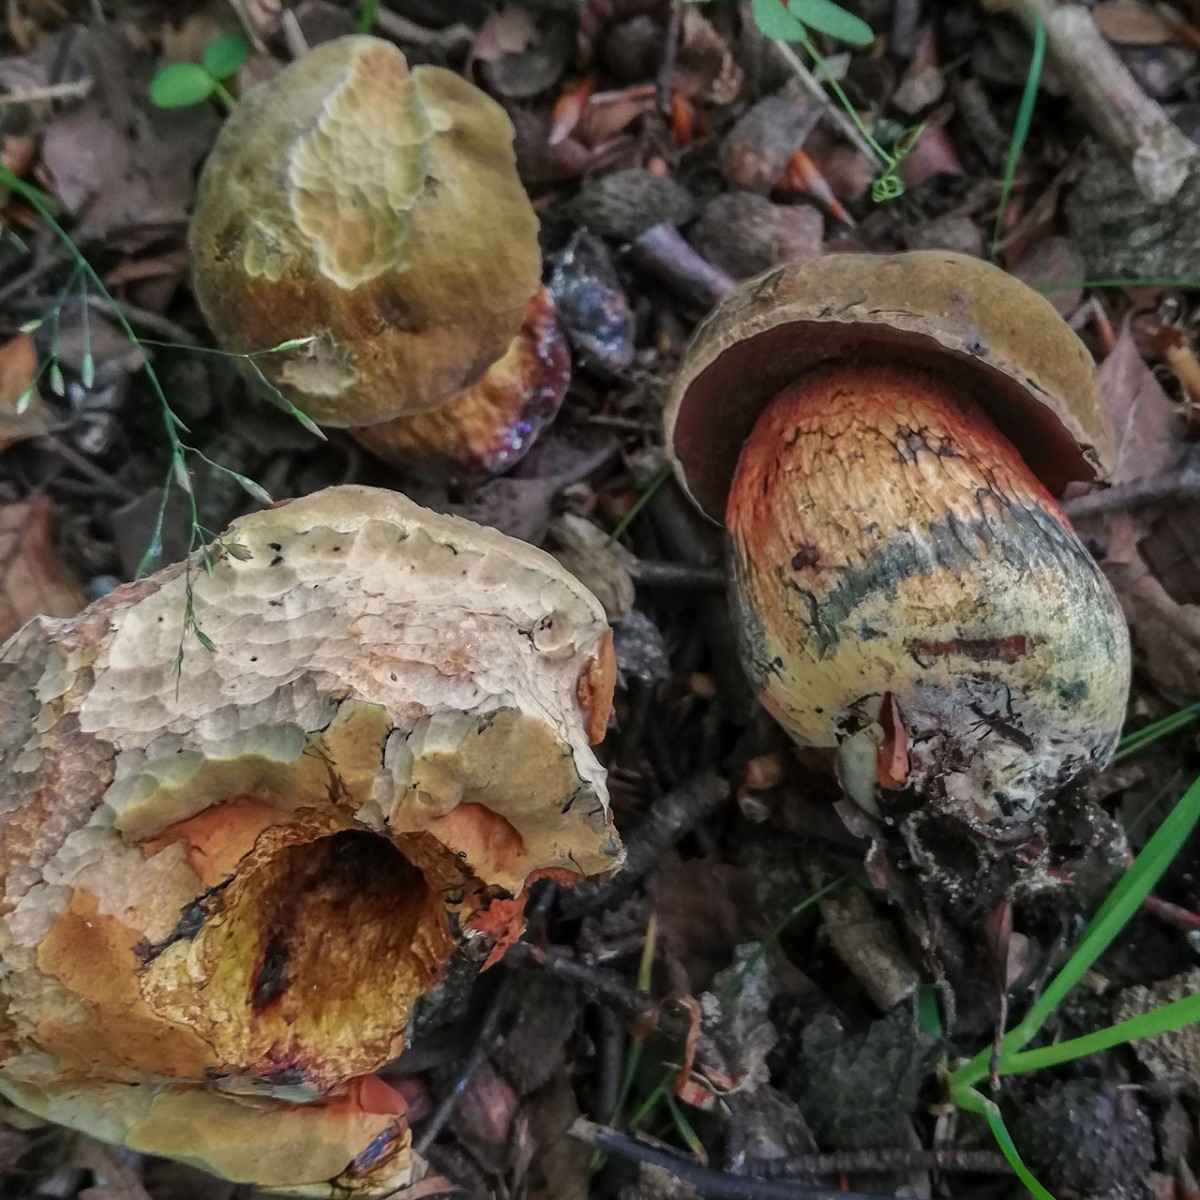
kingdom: Fungi
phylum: Basidiomycota
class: Agaricomycetes
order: Boletales
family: Boletaceae
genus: Suillellus
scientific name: Suillellus luridus
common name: netstokket indigorørhat
